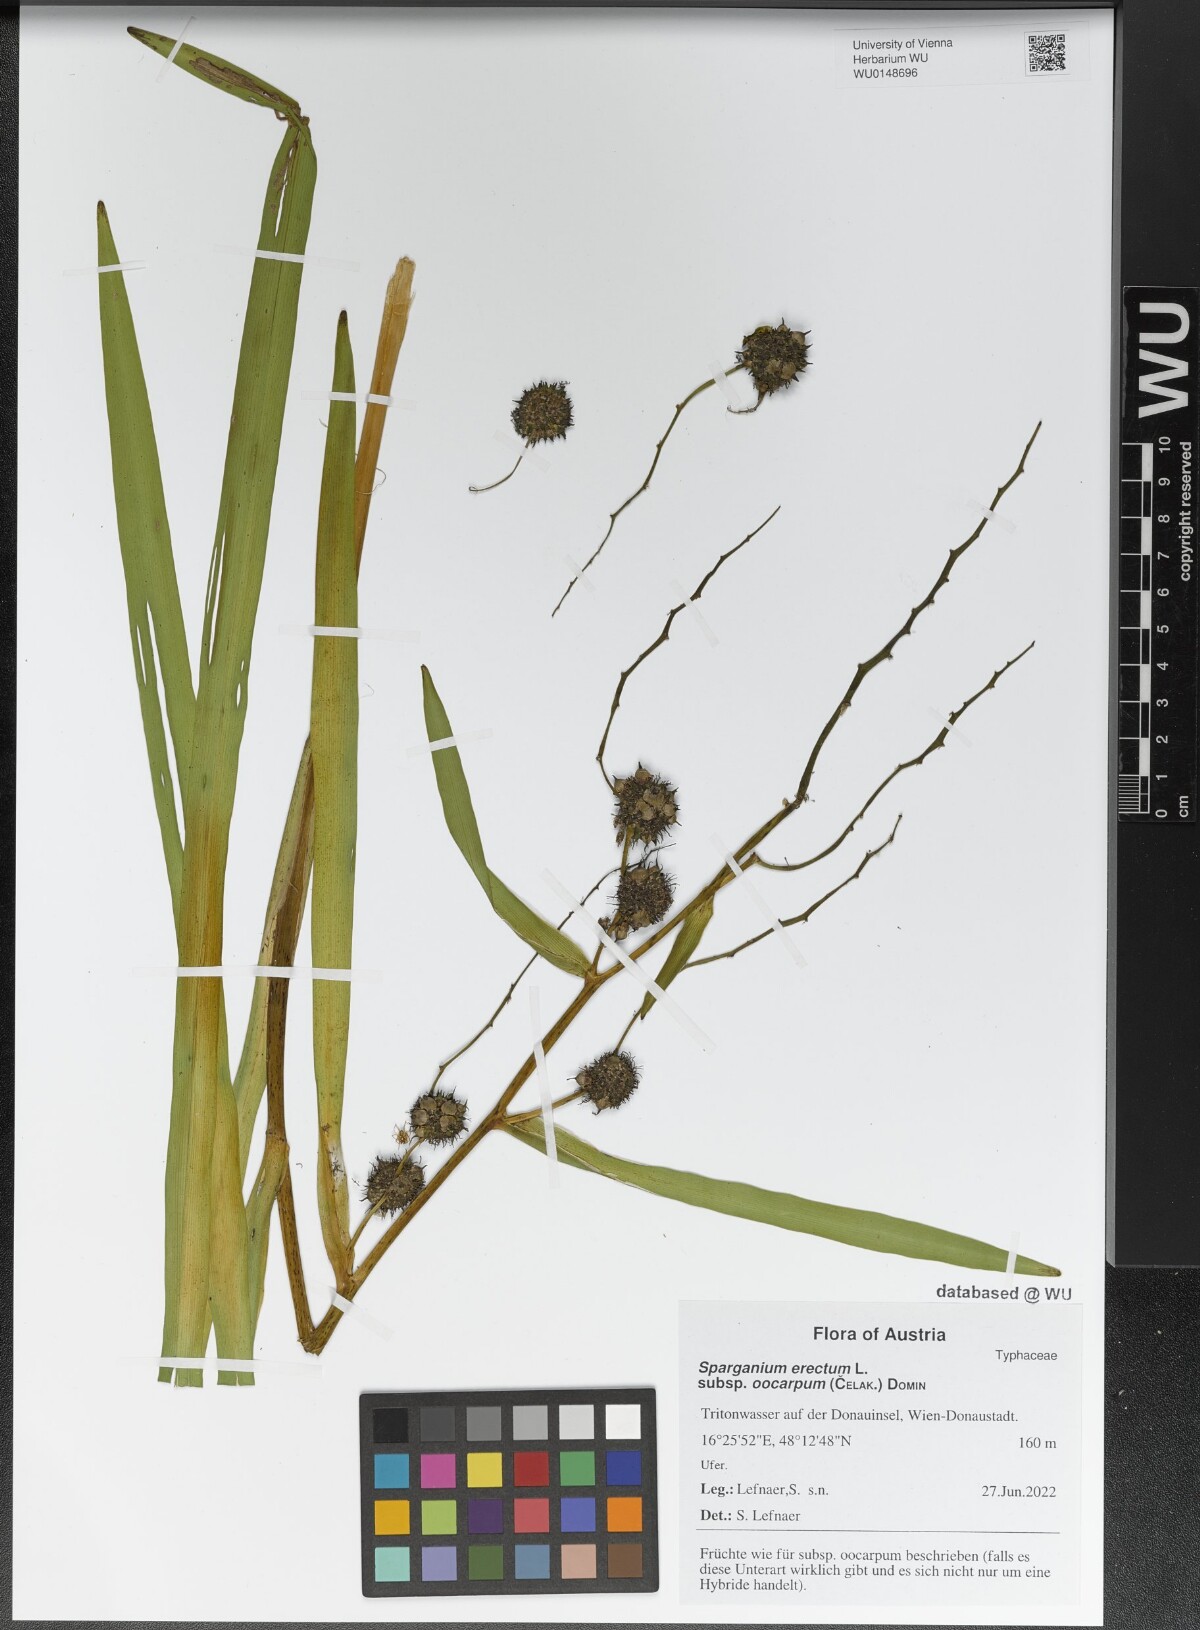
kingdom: Plantae
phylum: Tracheophyta
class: Liliopsida
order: Poales
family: Typhaceae
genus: Sparganium
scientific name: Sparganium erectum
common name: Branched bur-reed
